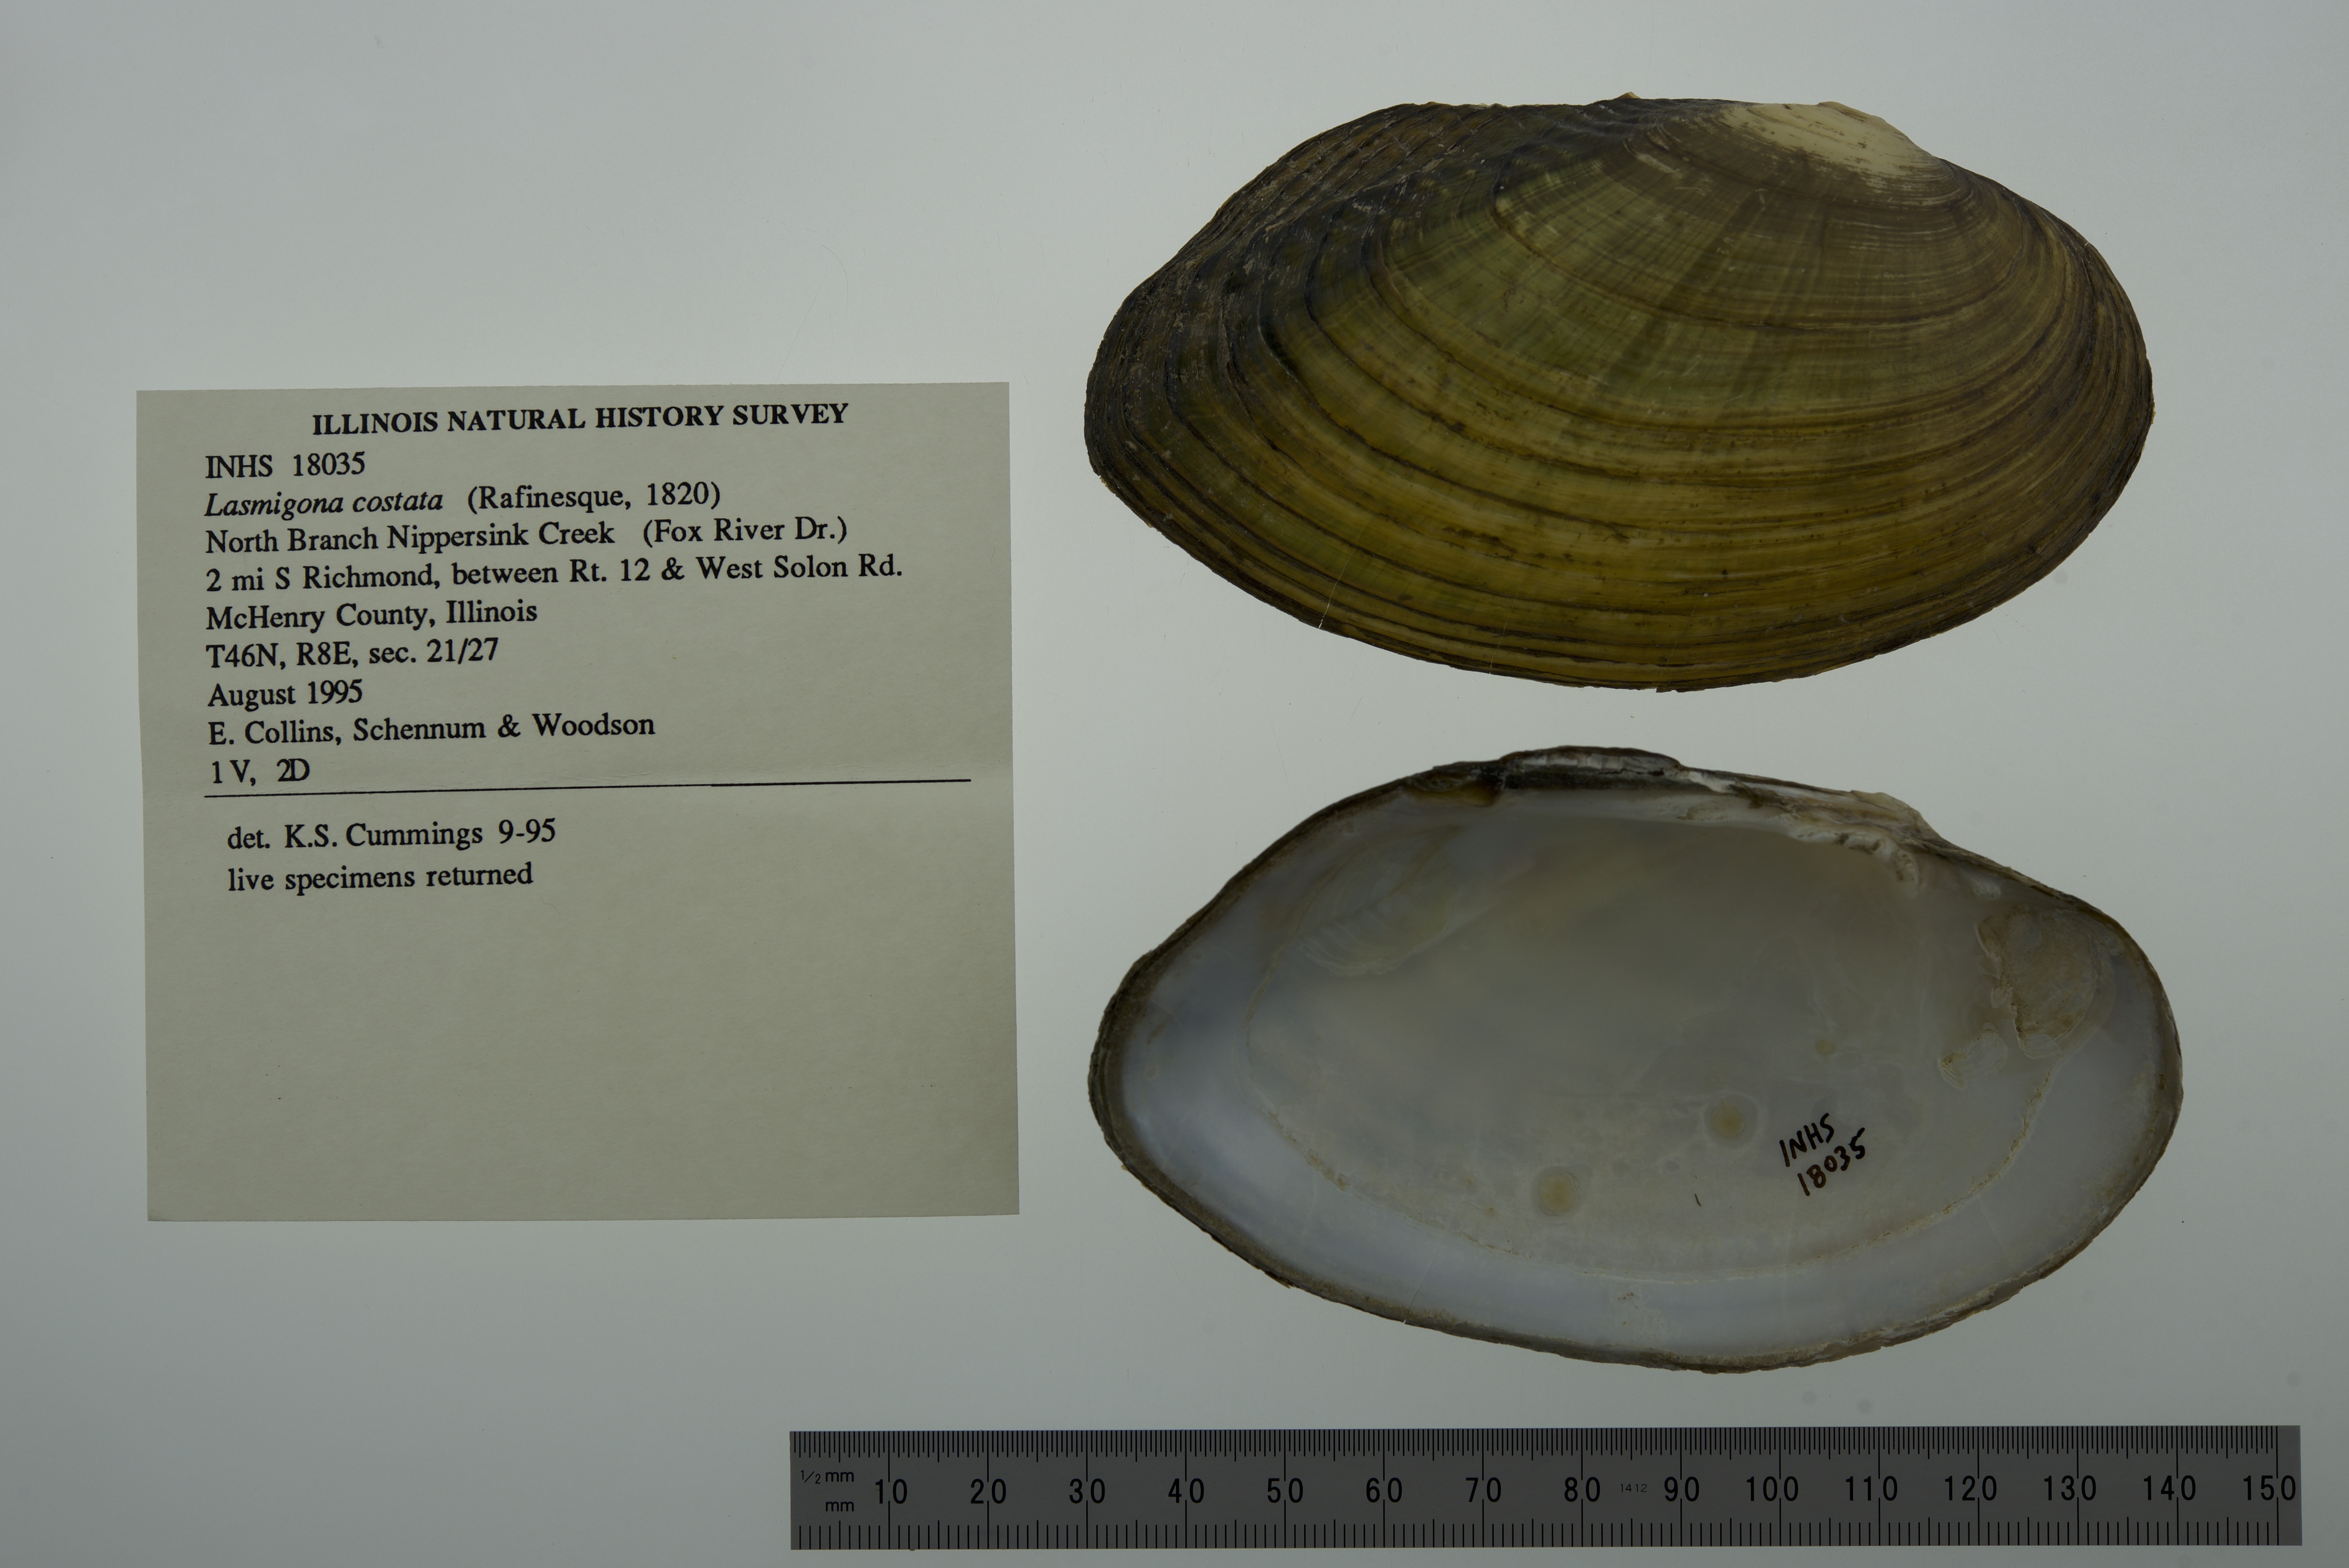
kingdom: Animalia
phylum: Mollusca
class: Bivalvia
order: Unionida
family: Unionidae
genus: Lasmigona
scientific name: Lasmigona costata
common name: Flutedshell
